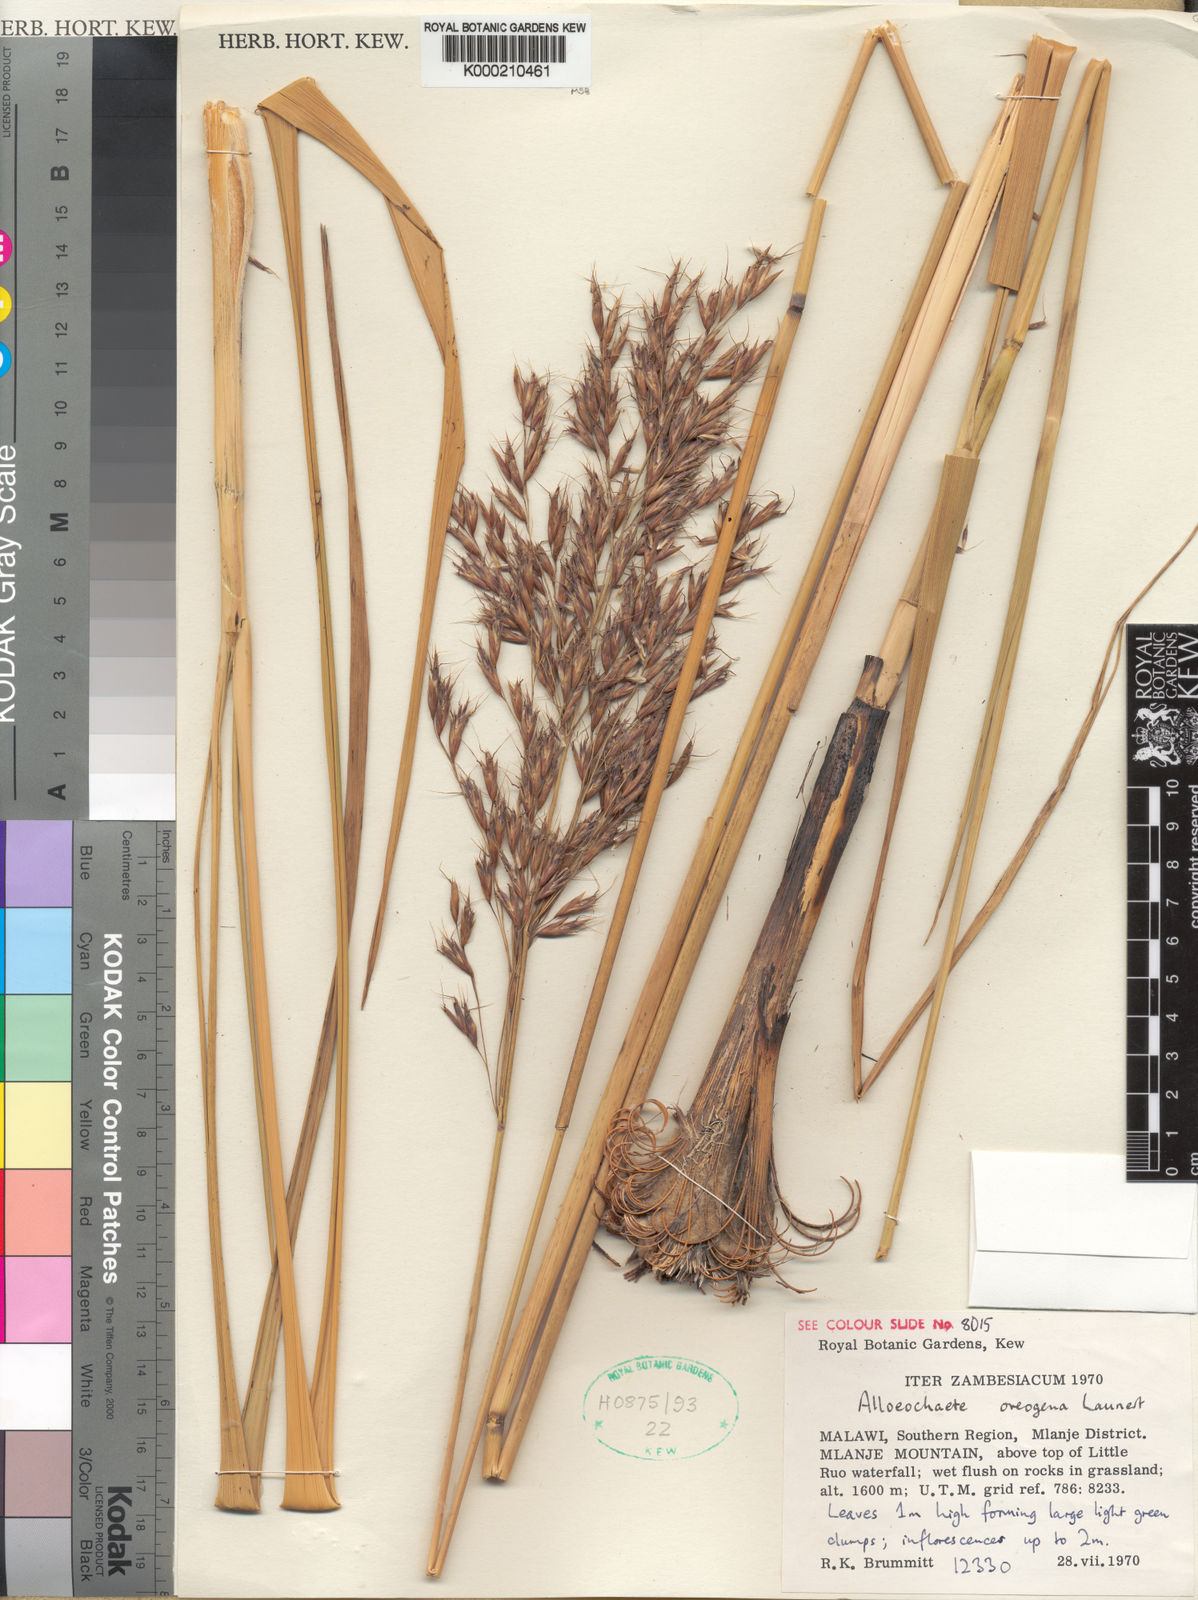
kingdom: Plantae
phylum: Tracheophyta
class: Liliopsida
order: Poales
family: Poaceae
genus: Alloeochaete
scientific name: Alloeochaete oreogena
